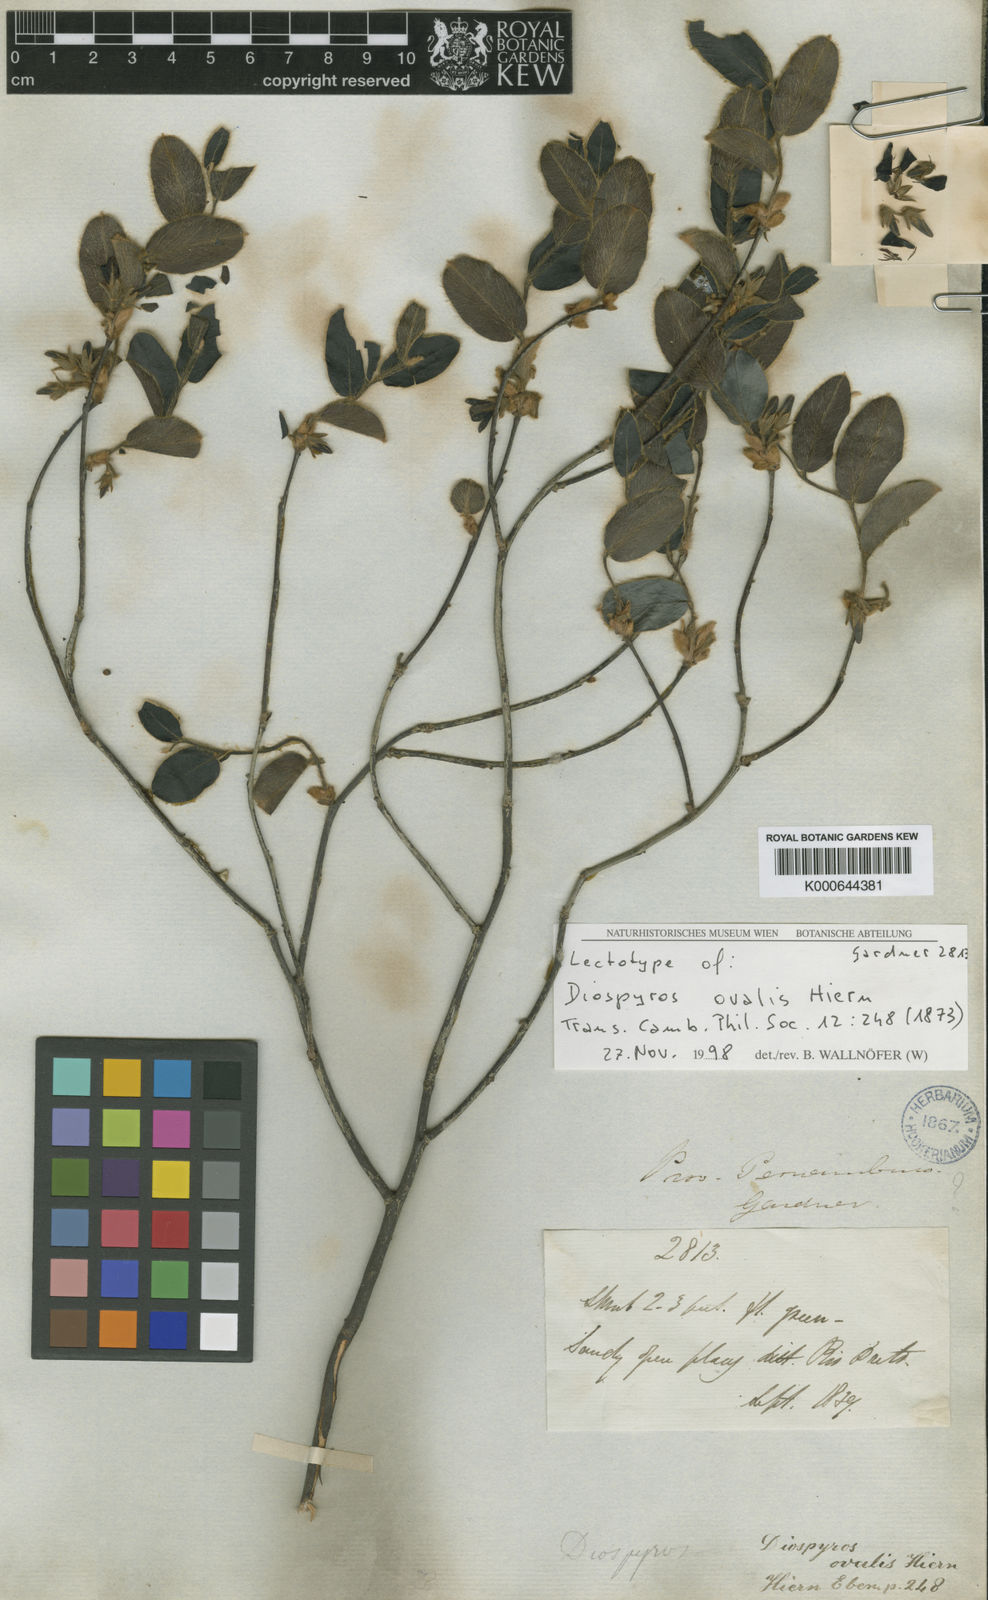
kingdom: Plantae
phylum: Tracheophyta
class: Magnoliopsida
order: Ericales
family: Ebenaceae
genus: Diospyros
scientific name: Diospyros ovalis
